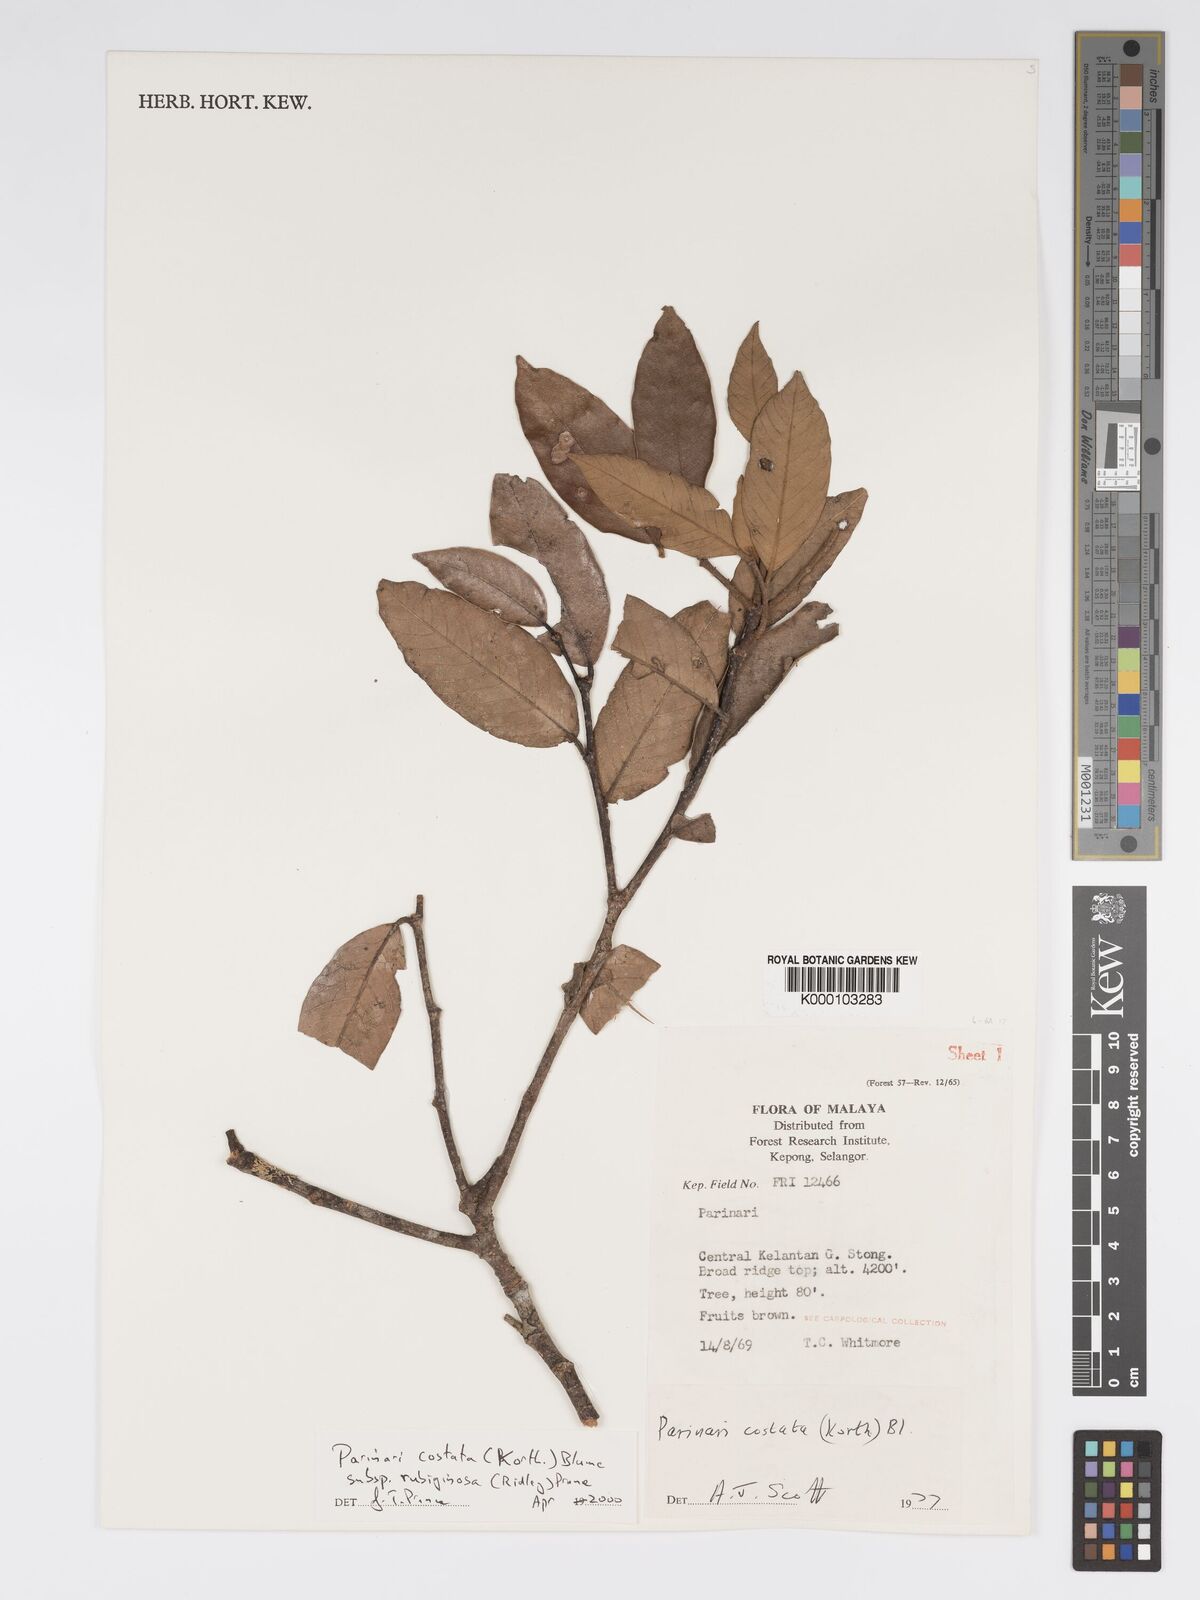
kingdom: Plantae
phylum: Tracheophyta
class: Magnoliopsida
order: Malpighiales
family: Chrysobalanaceae
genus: Parinari
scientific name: Parinari costata
